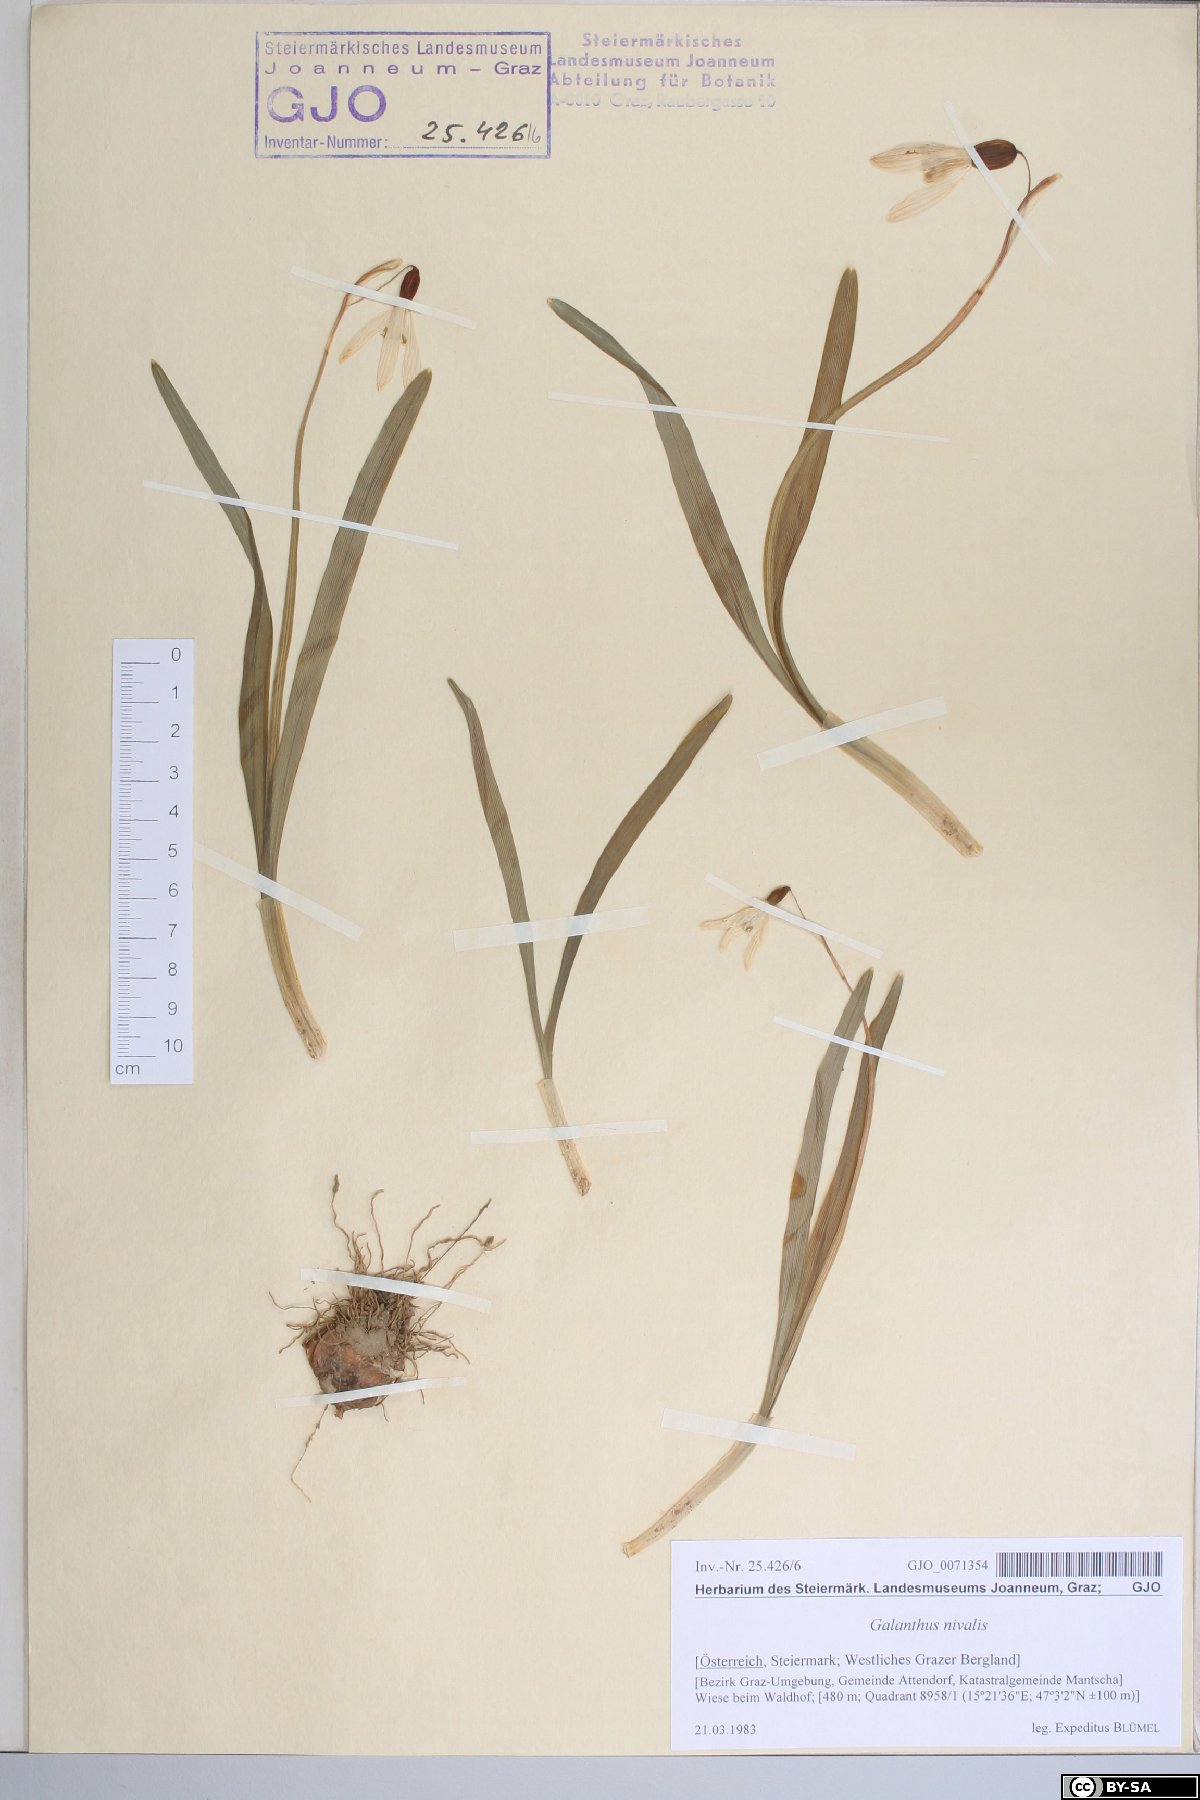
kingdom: Plantae
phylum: Tracheophyta
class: Liliopsida
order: Asparagales
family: Amaryllidaceae
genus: Galanthus
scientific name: Galanthus nivalis
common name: Snowdrop
